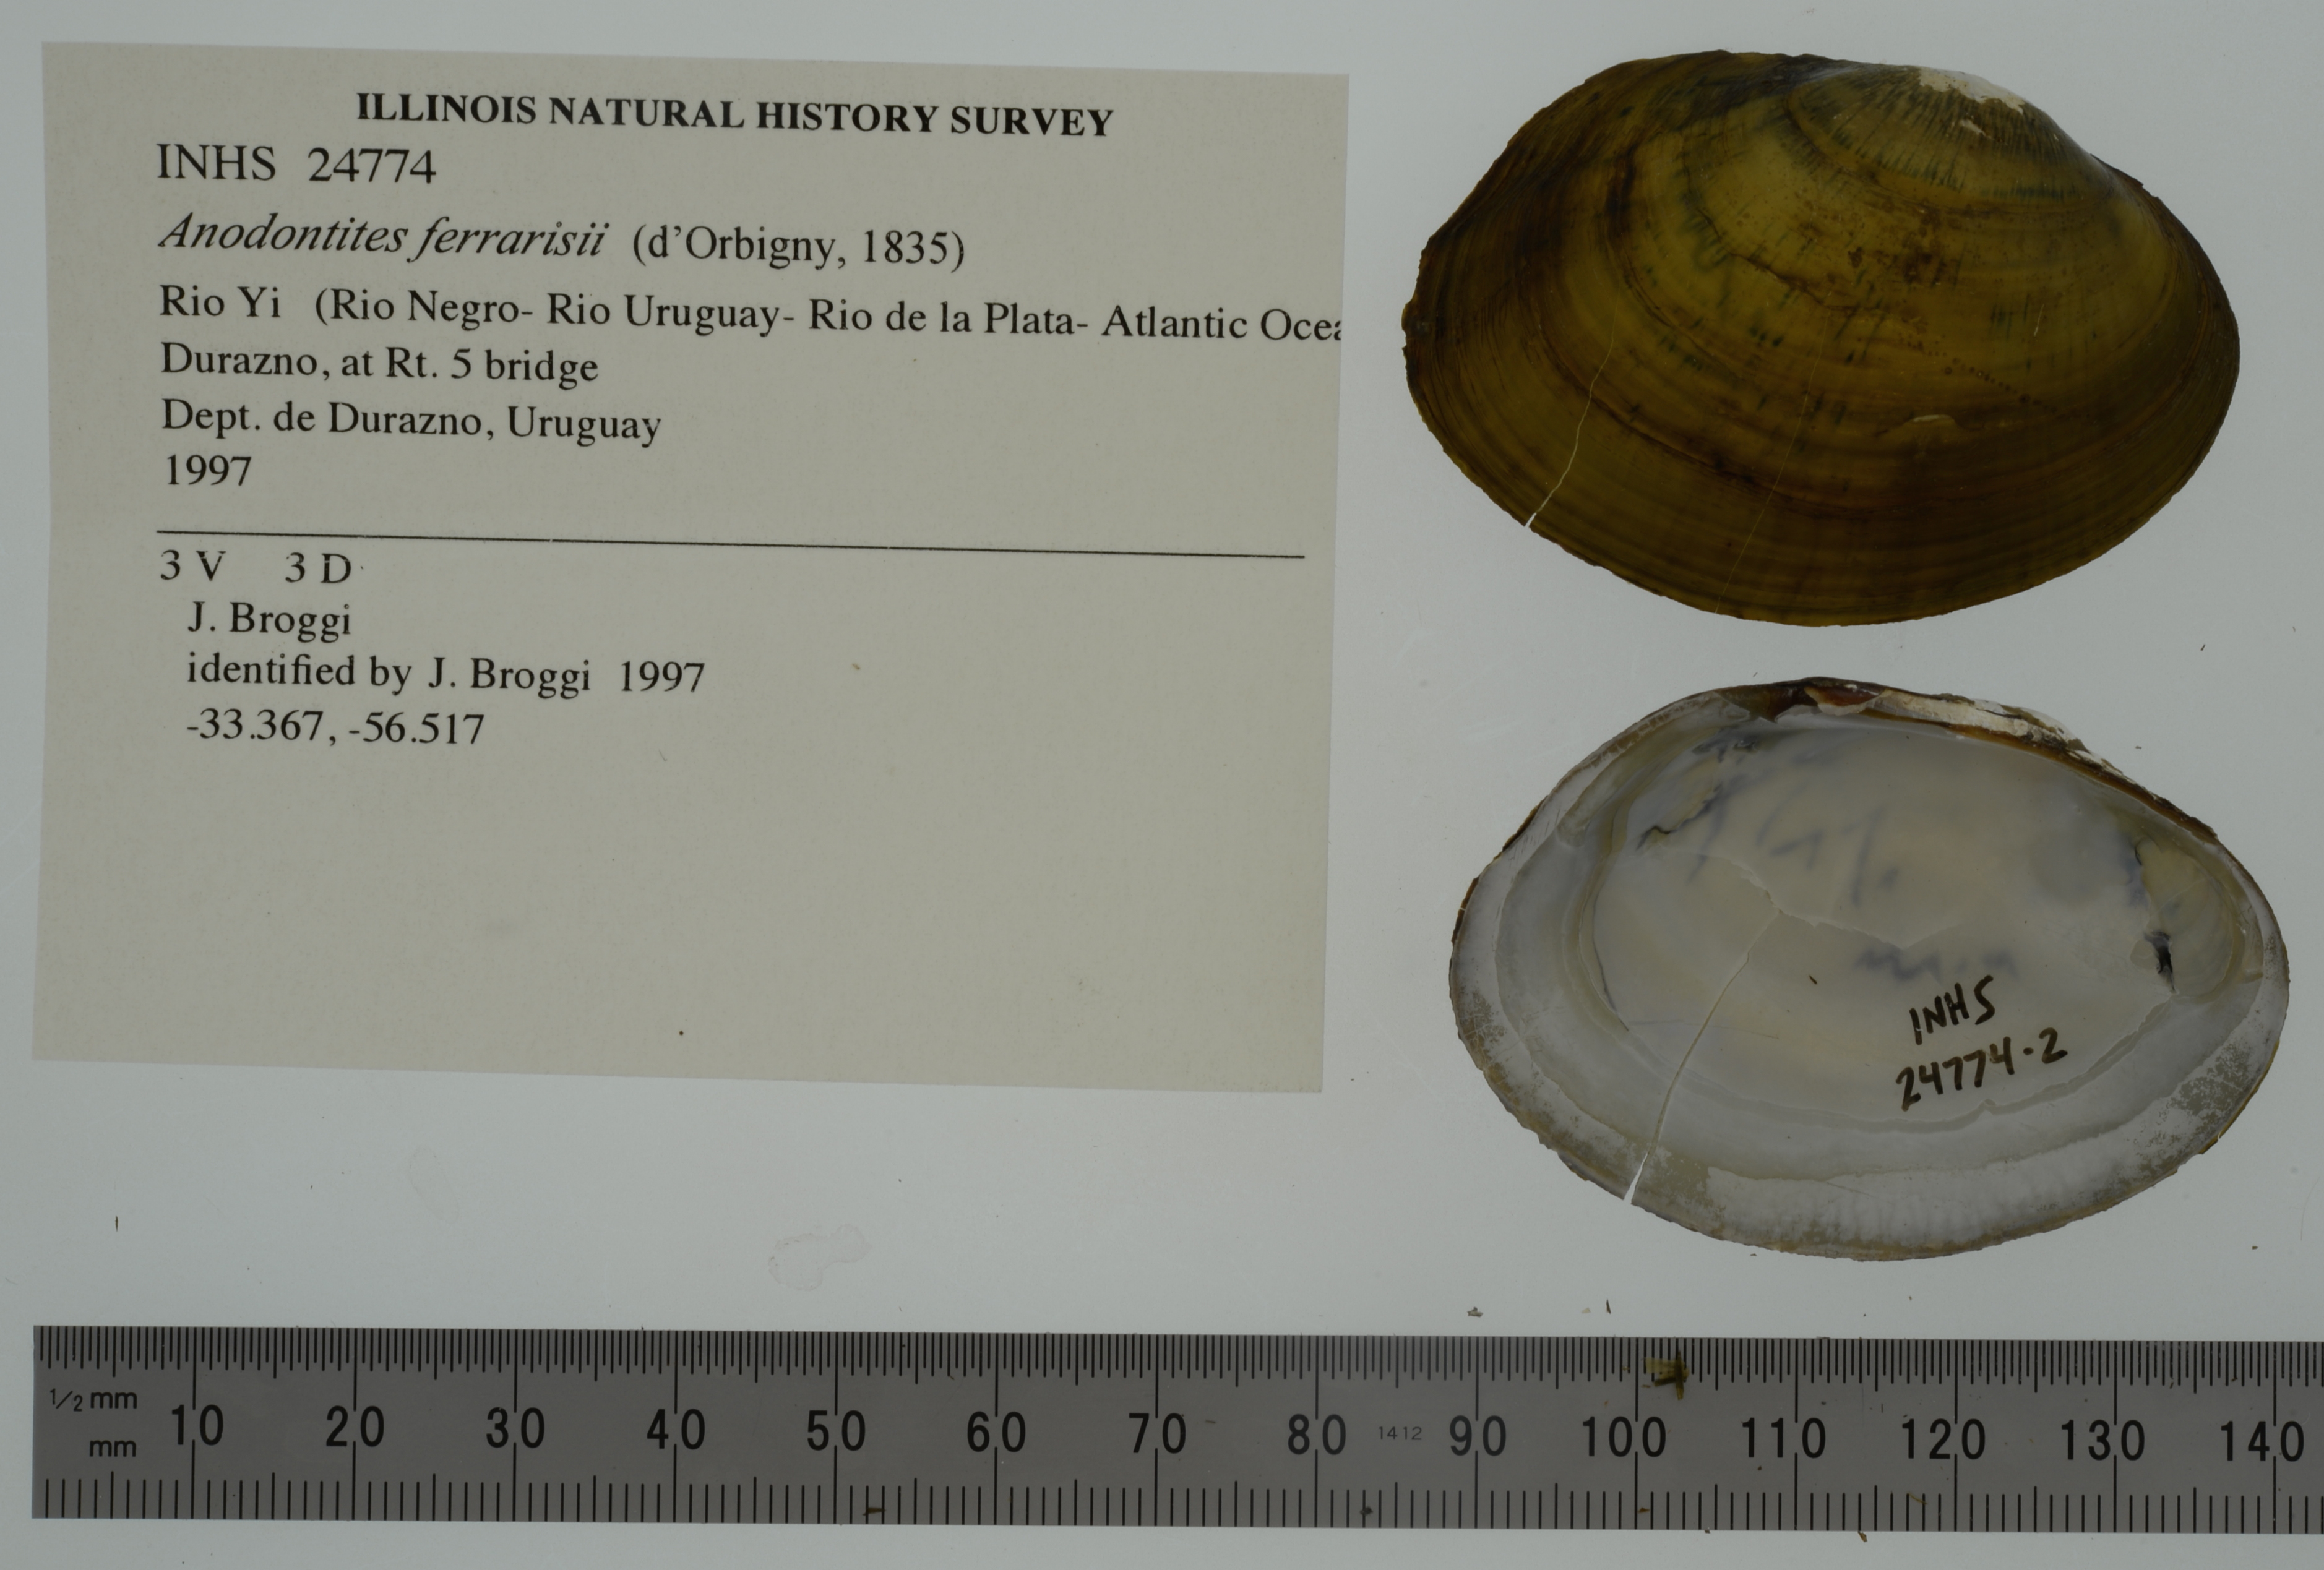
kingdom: Animalia
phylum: Mollusca
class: Bivalvia
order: Unionida
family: Mycetopodidae
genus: Anodontites
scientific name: Anodontites ferrarisii
